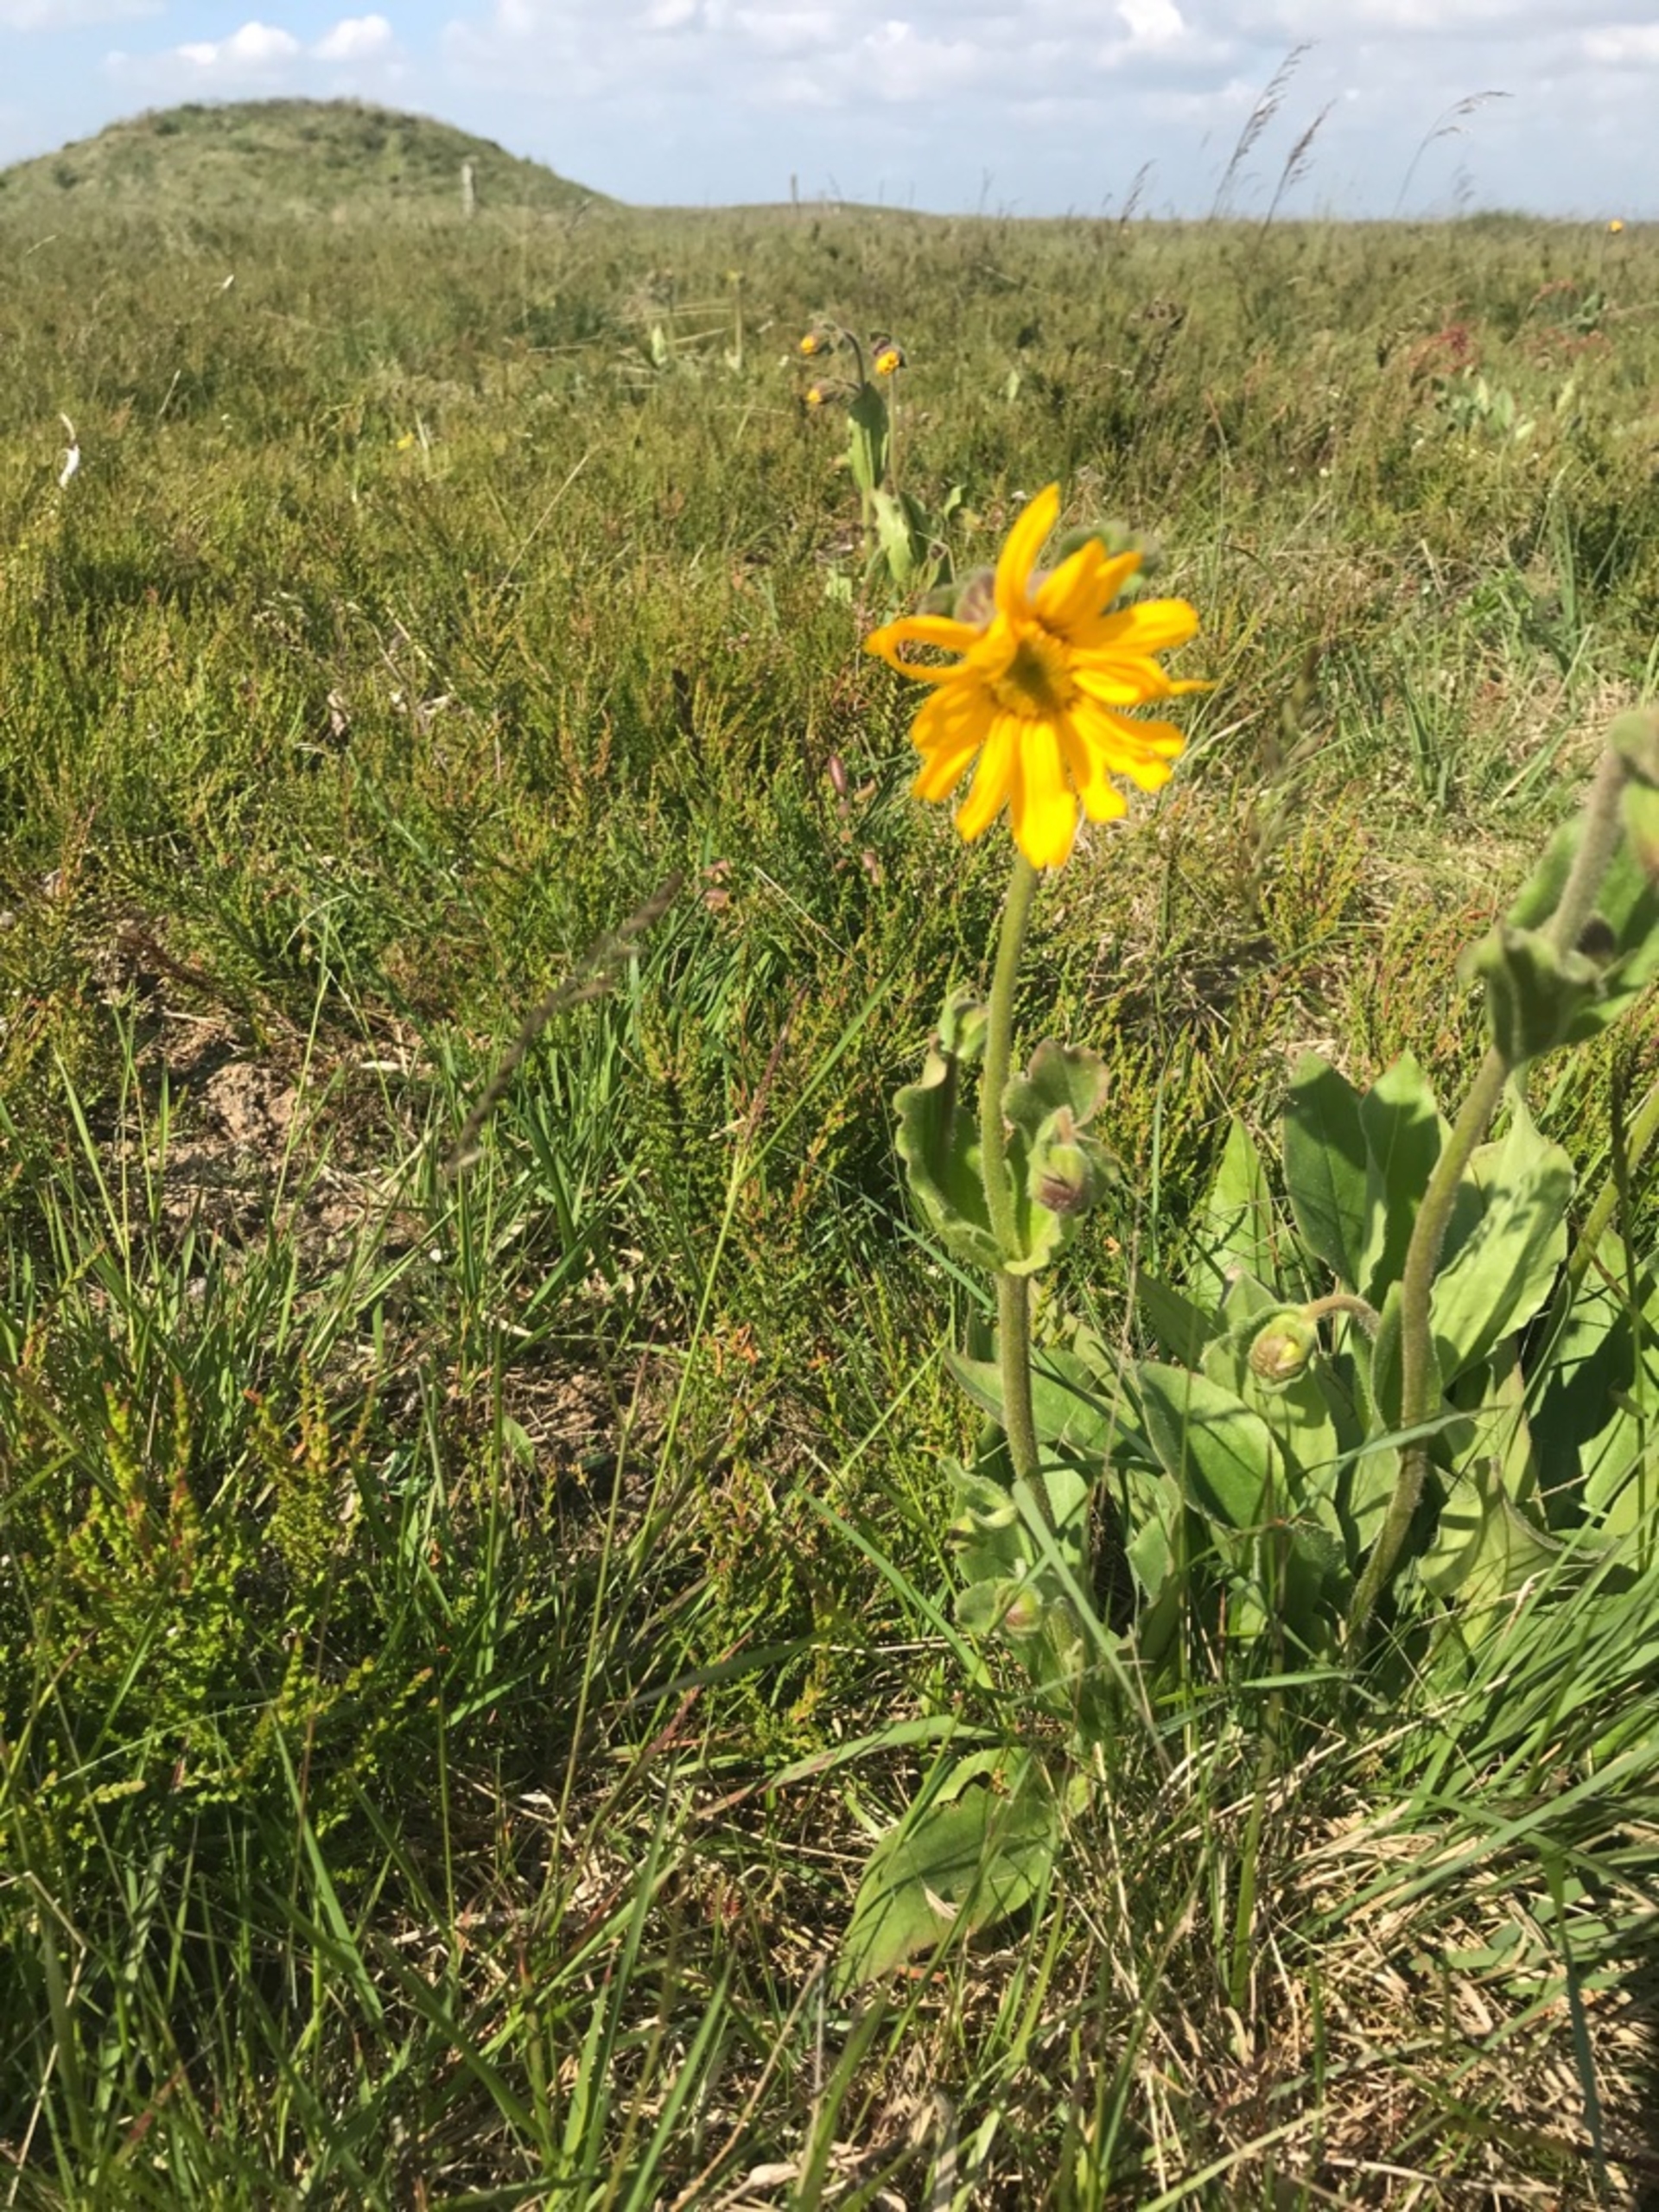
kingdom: Plantae
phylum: Tracheophyta
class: Magnoliopsida
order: Asterales
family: Asteraceae
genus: Arnica
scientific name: Arnica montana
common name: Guldblomme
